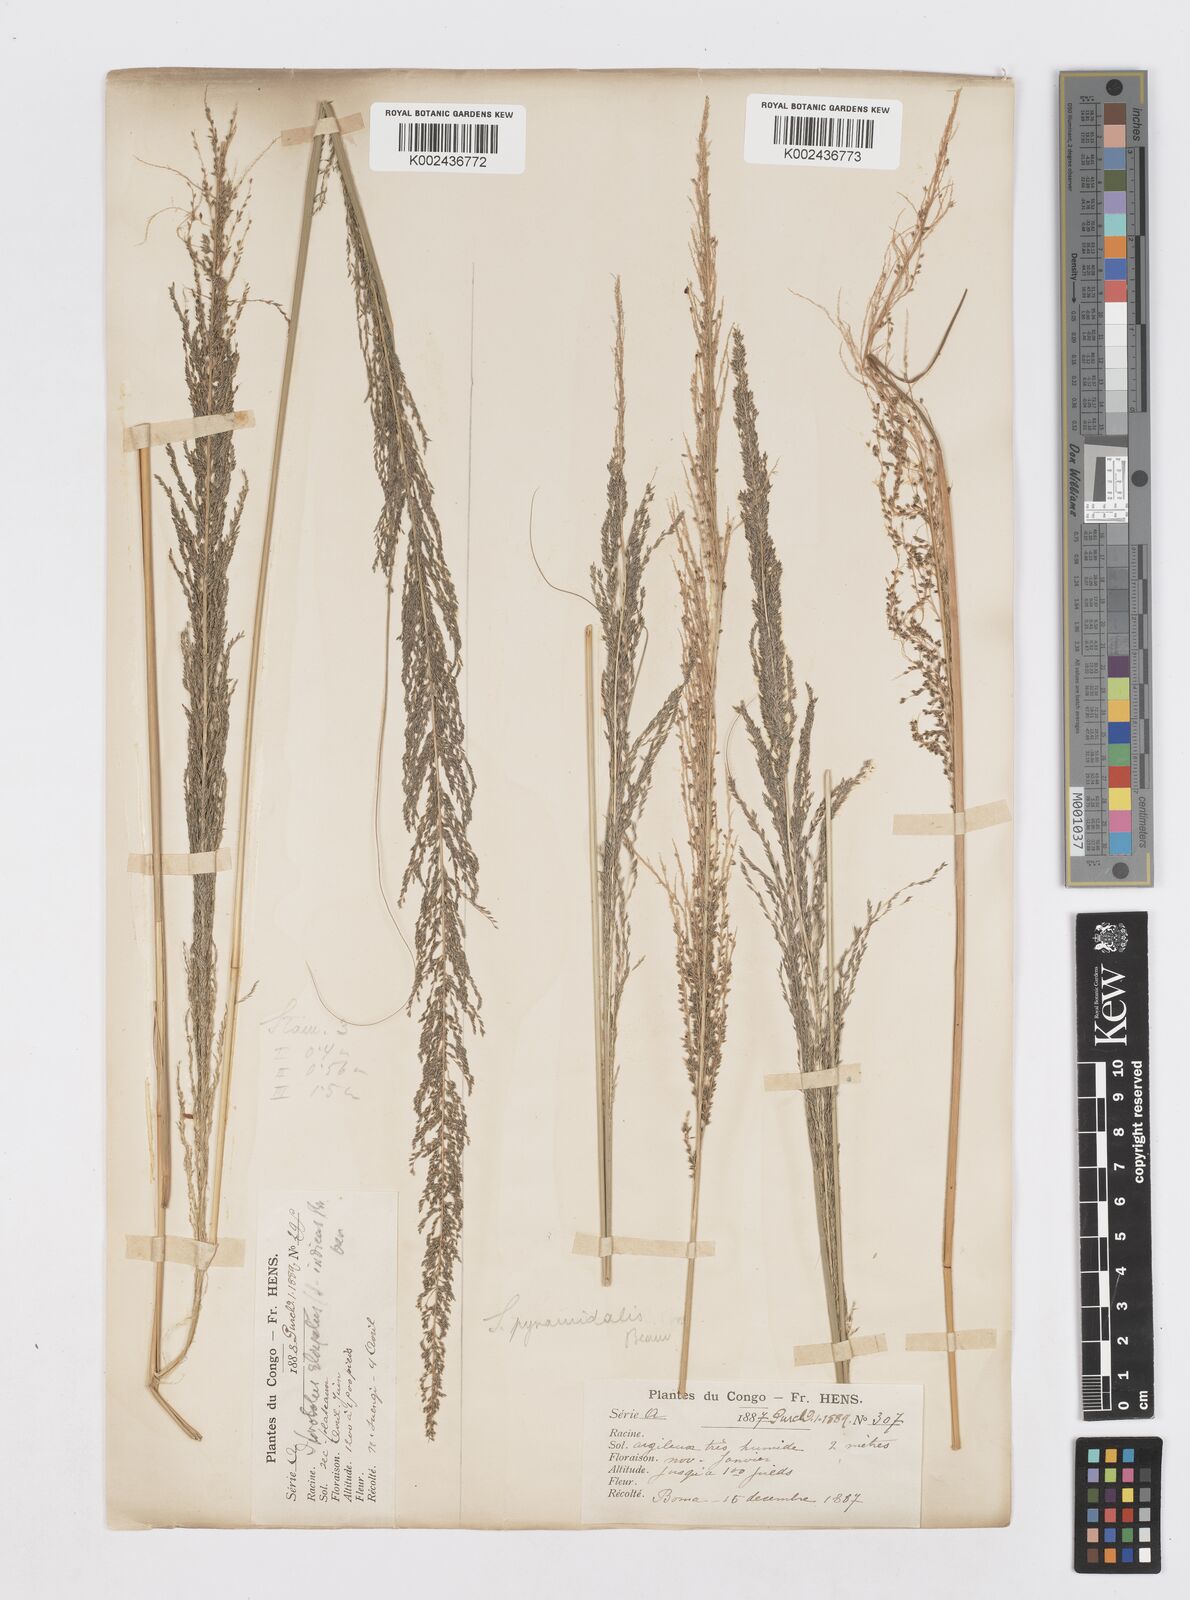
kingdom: Plantae
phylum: Tracheophyta
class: Liliopsida
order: Poales
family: Poaceae
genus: Sporobolus
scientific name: Sporobolus pyramidalis
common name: West indian dropseed
